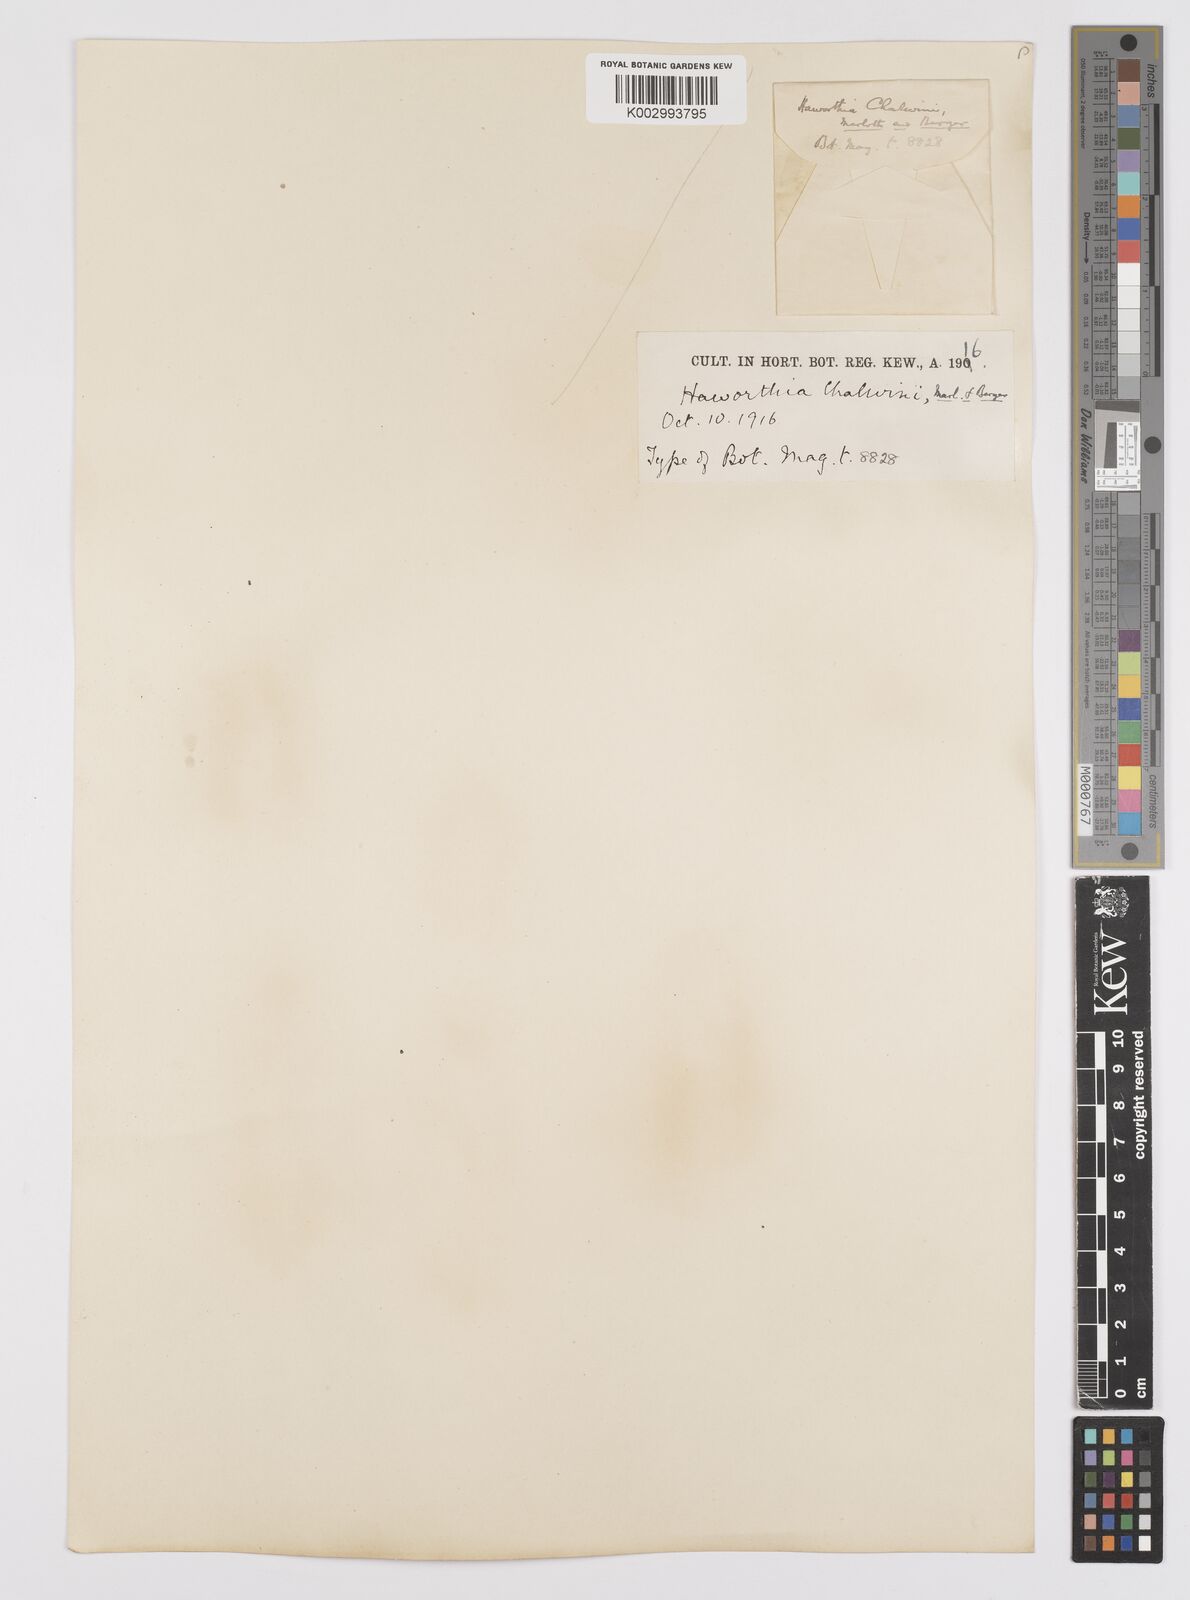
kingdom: Plantae
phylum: Tracheophyta
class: Liliopsida
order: Asparagales
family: Asphodelaceae
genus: Haworthiopsis
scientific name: Haworthiopsis coarctata
